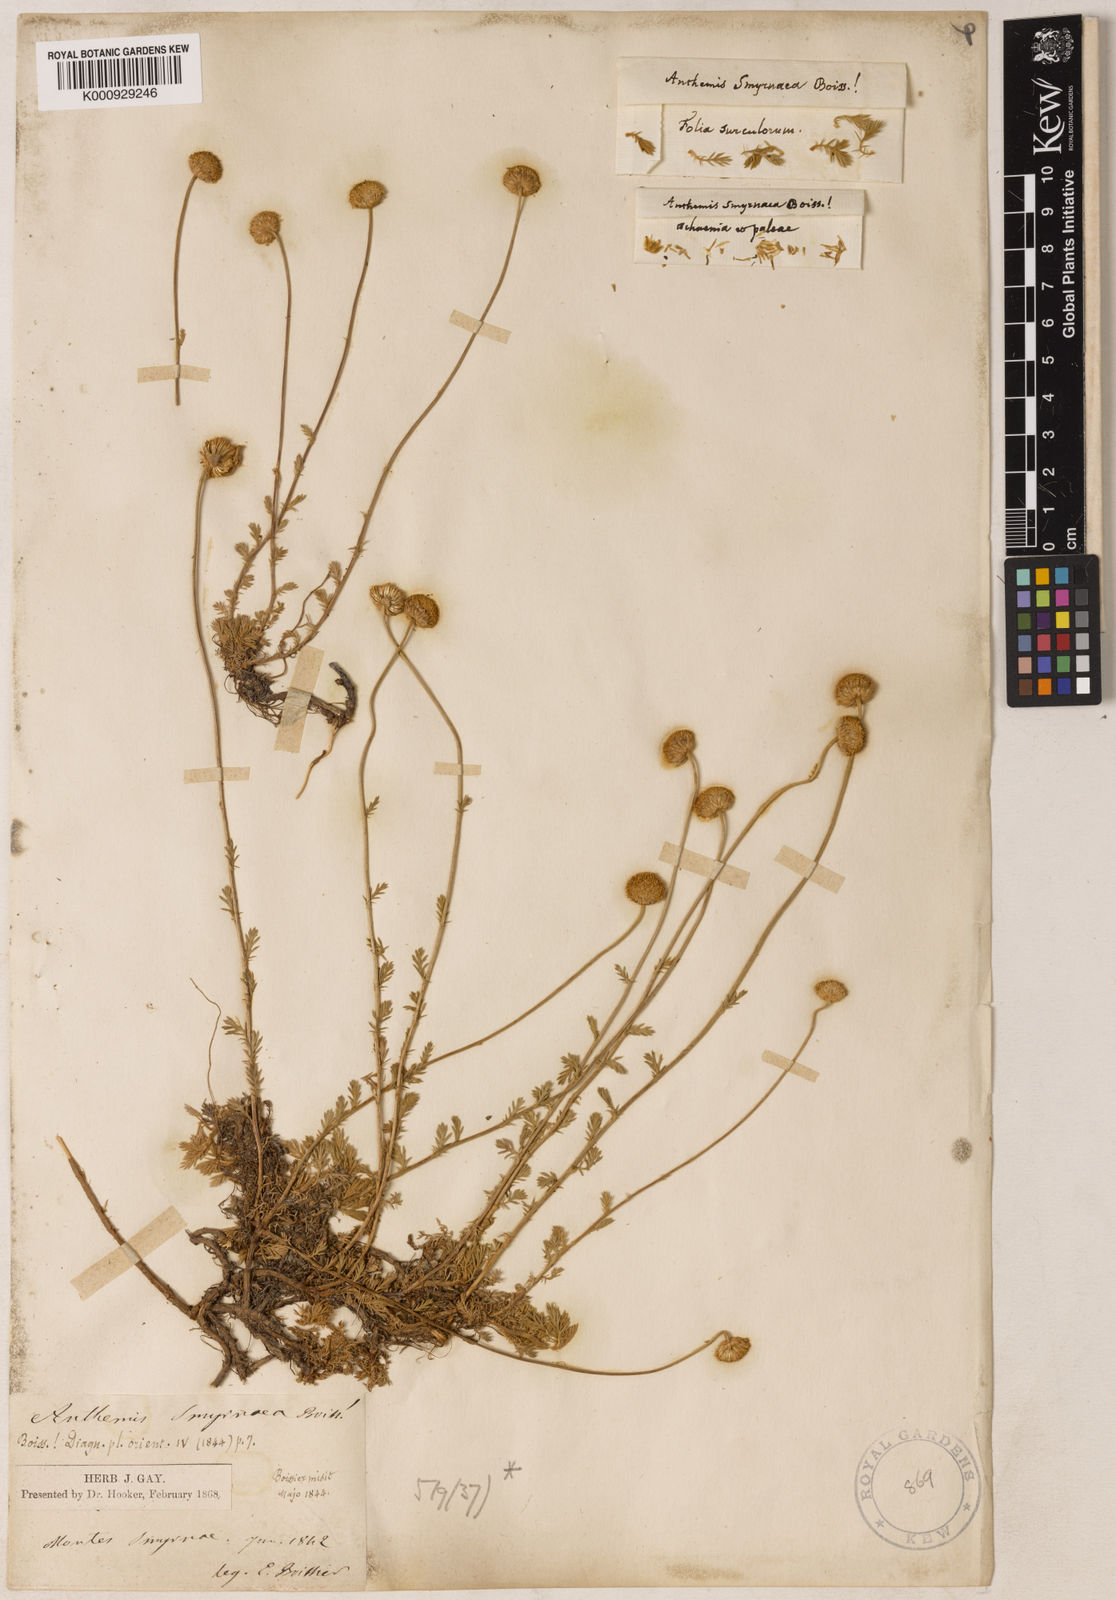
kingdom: Plantae
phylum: Tracheophyta
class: Magnoliopsida
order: Asterales
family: Asteraceae
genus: Anthemis
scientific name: Anthemis cretica
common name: Mountain dog-daisy
